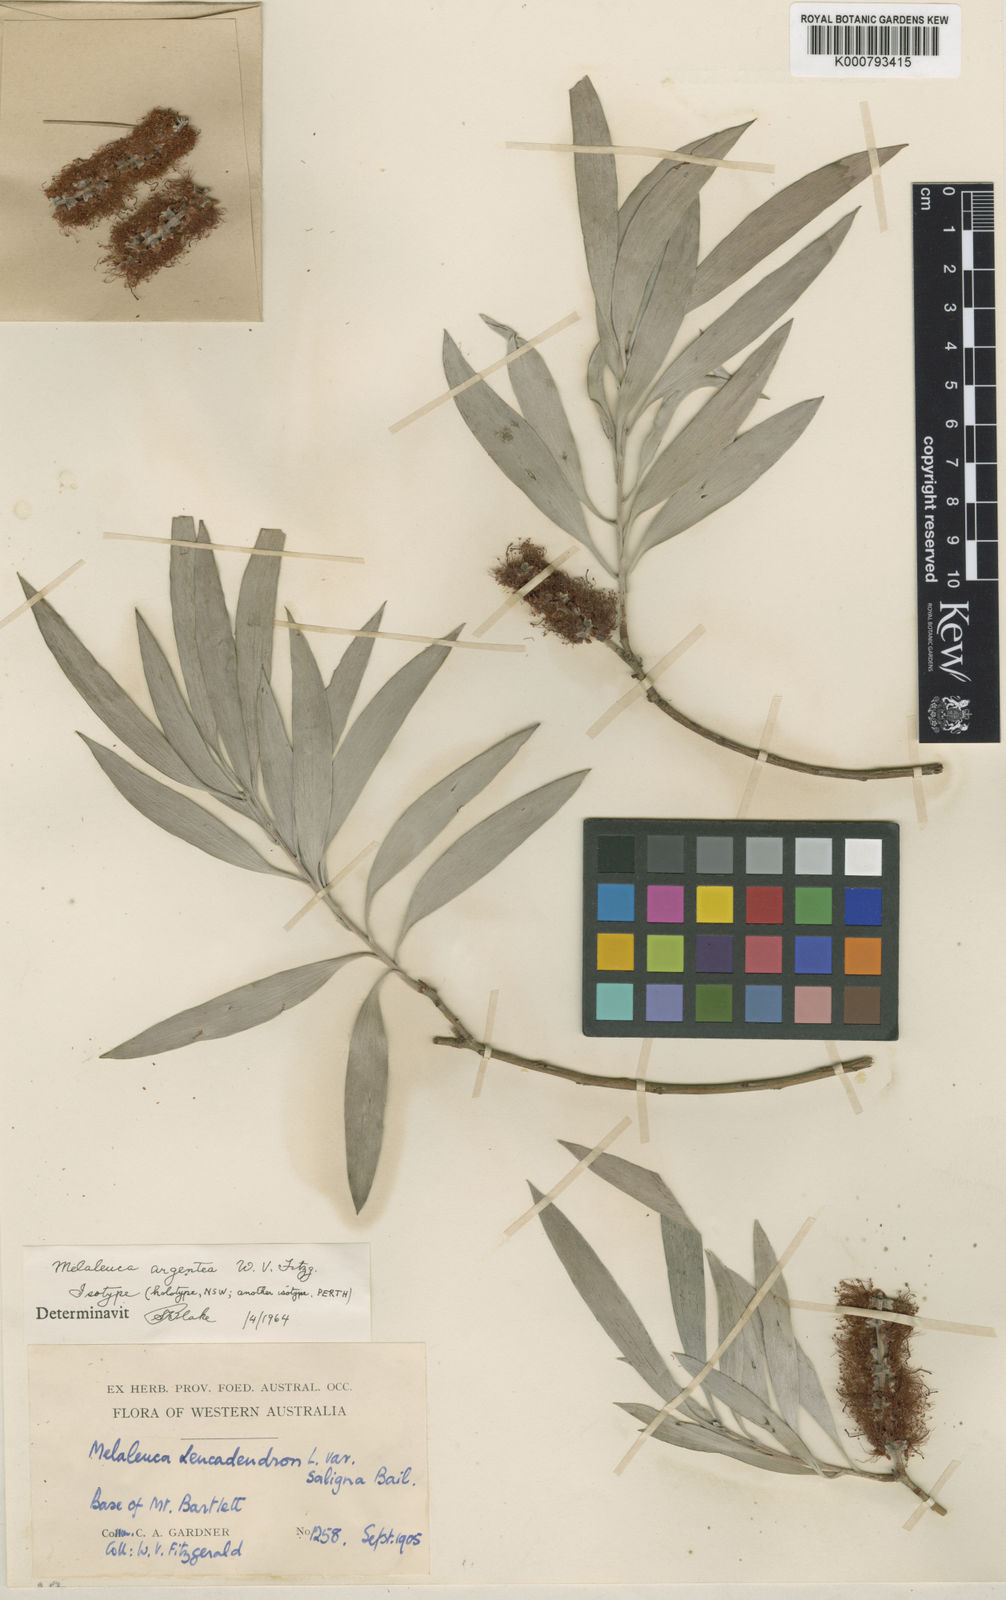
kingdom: Plantae
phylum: Tracheophyta
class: Magnoliopsida
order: Myrtales
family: Myrtaceae
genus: Melaleuca
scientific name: Melaleuca argentea
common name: Silver cadjeput
